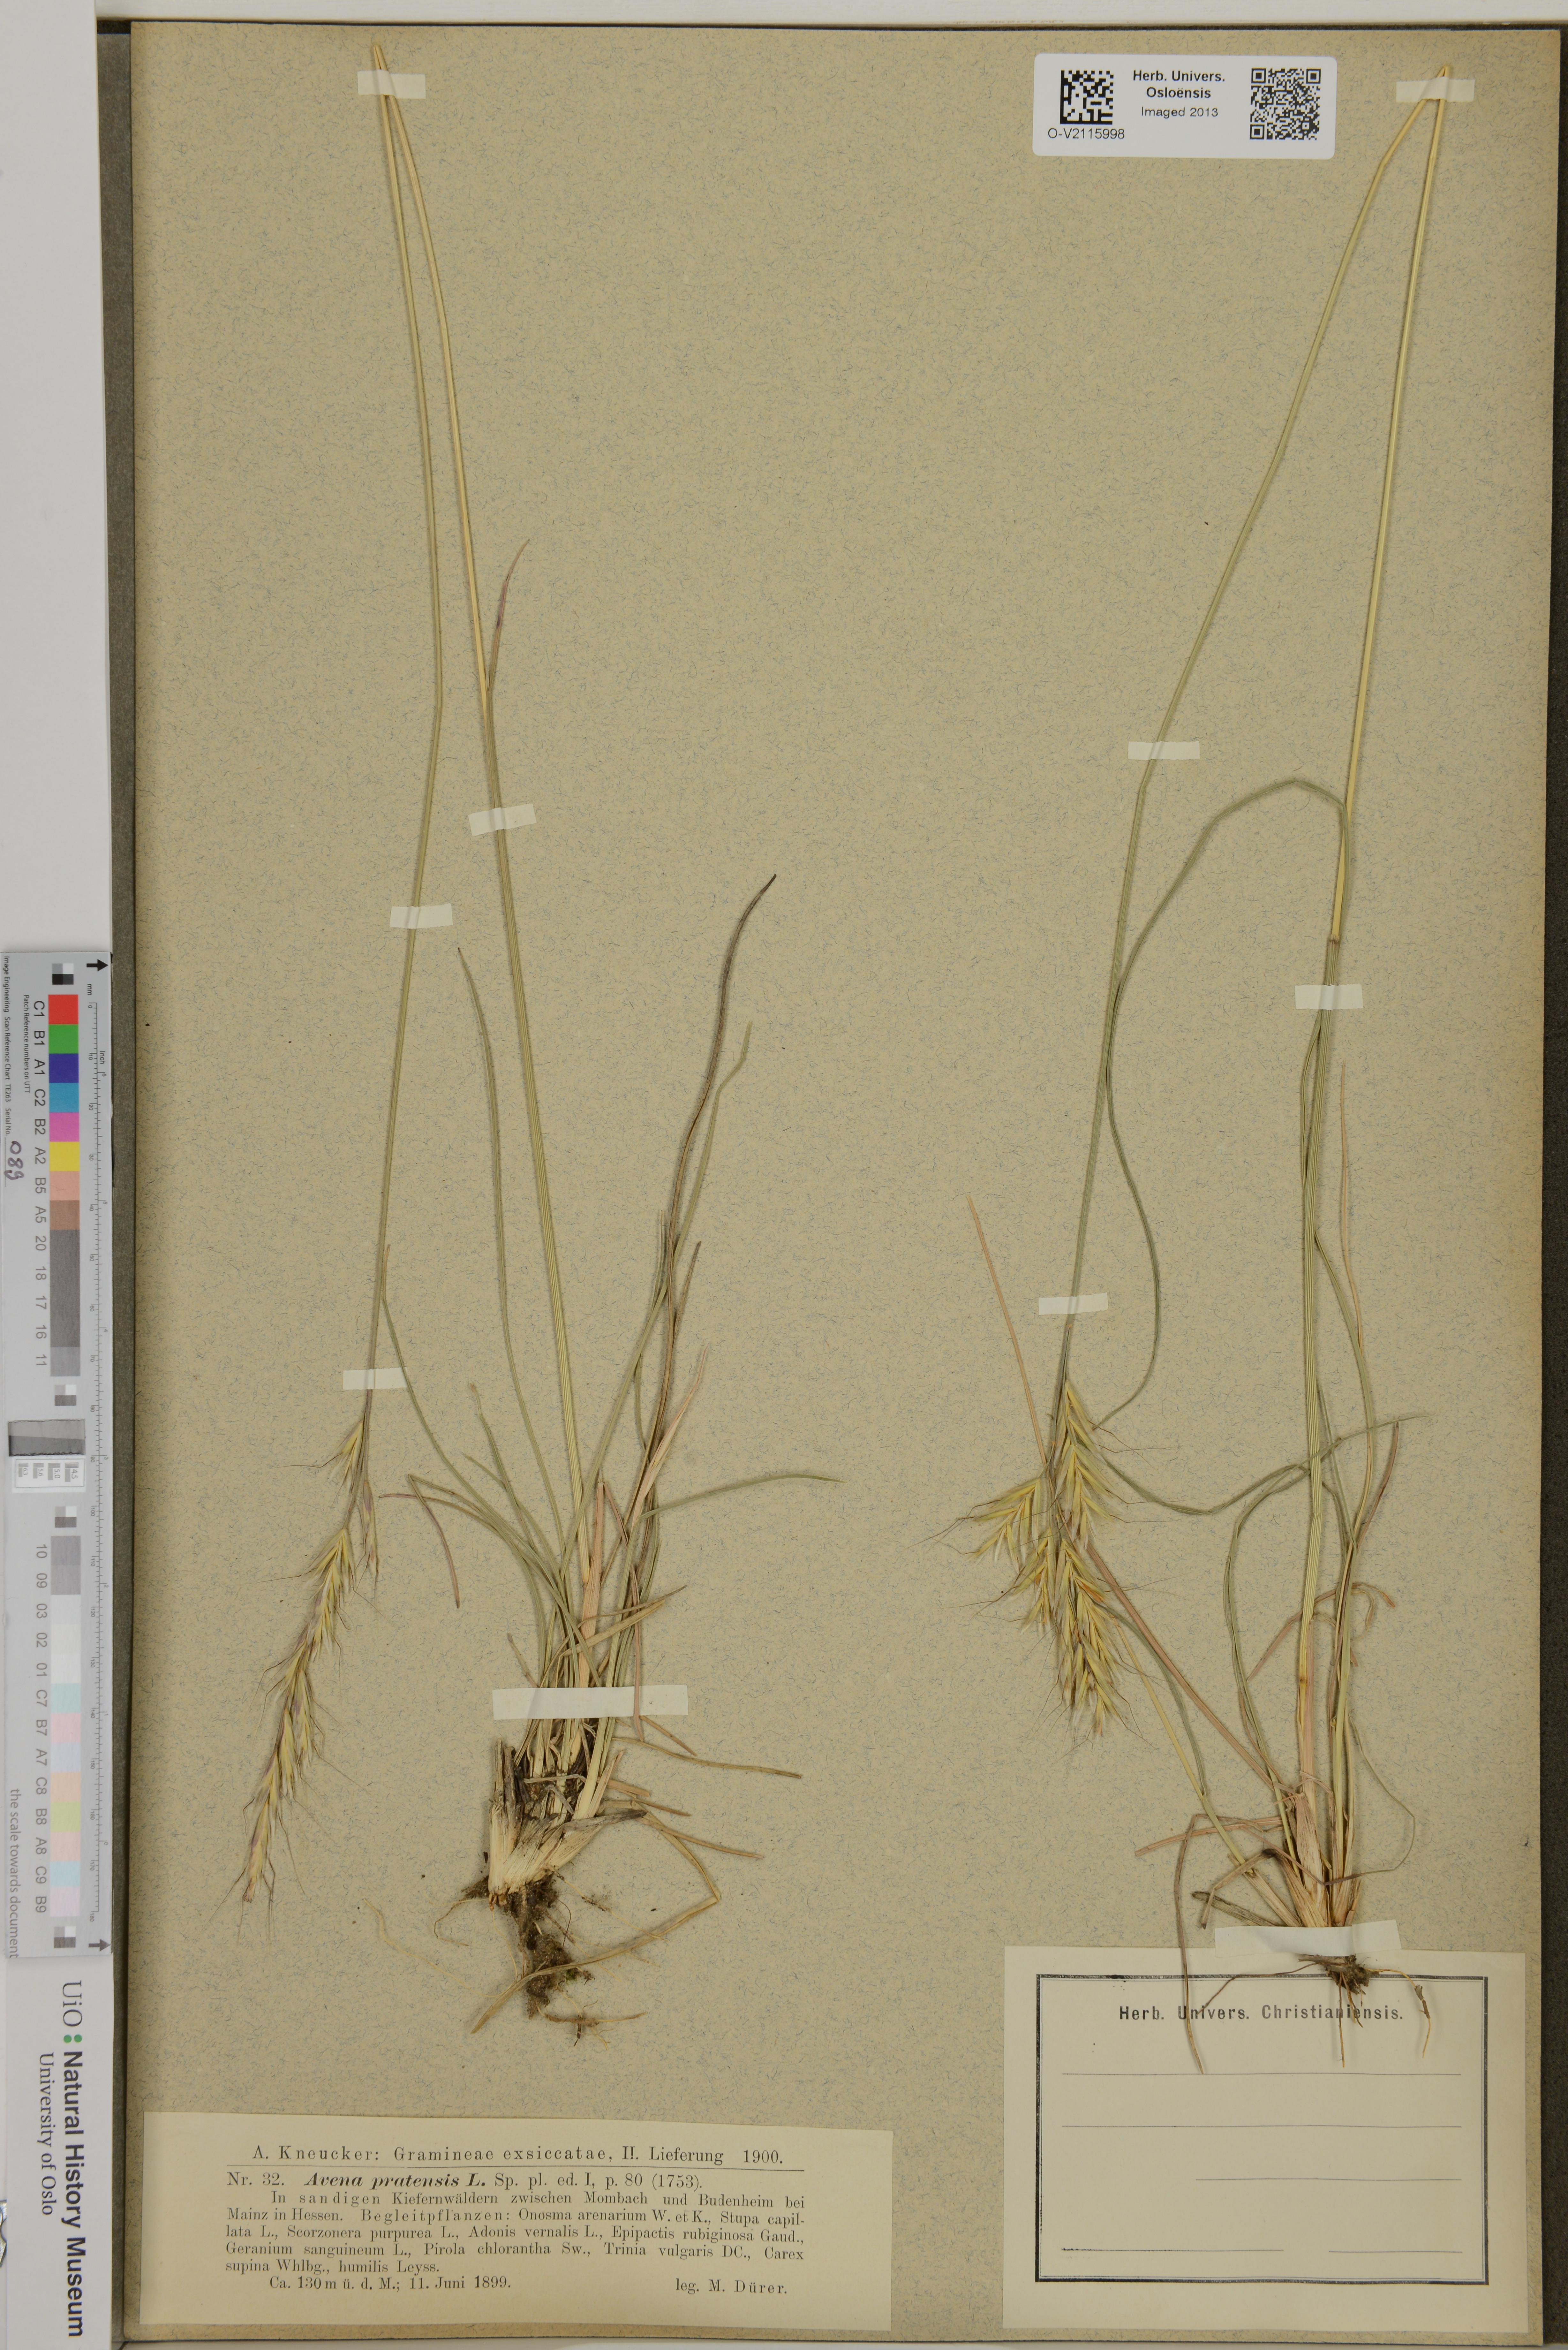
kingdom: Plantae
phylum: Tracheophyta
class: Liliopsida
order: Poales
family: Poaceae
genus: Helictochloa
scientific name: Helictochloa pratensis
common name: Meadow oat grass
